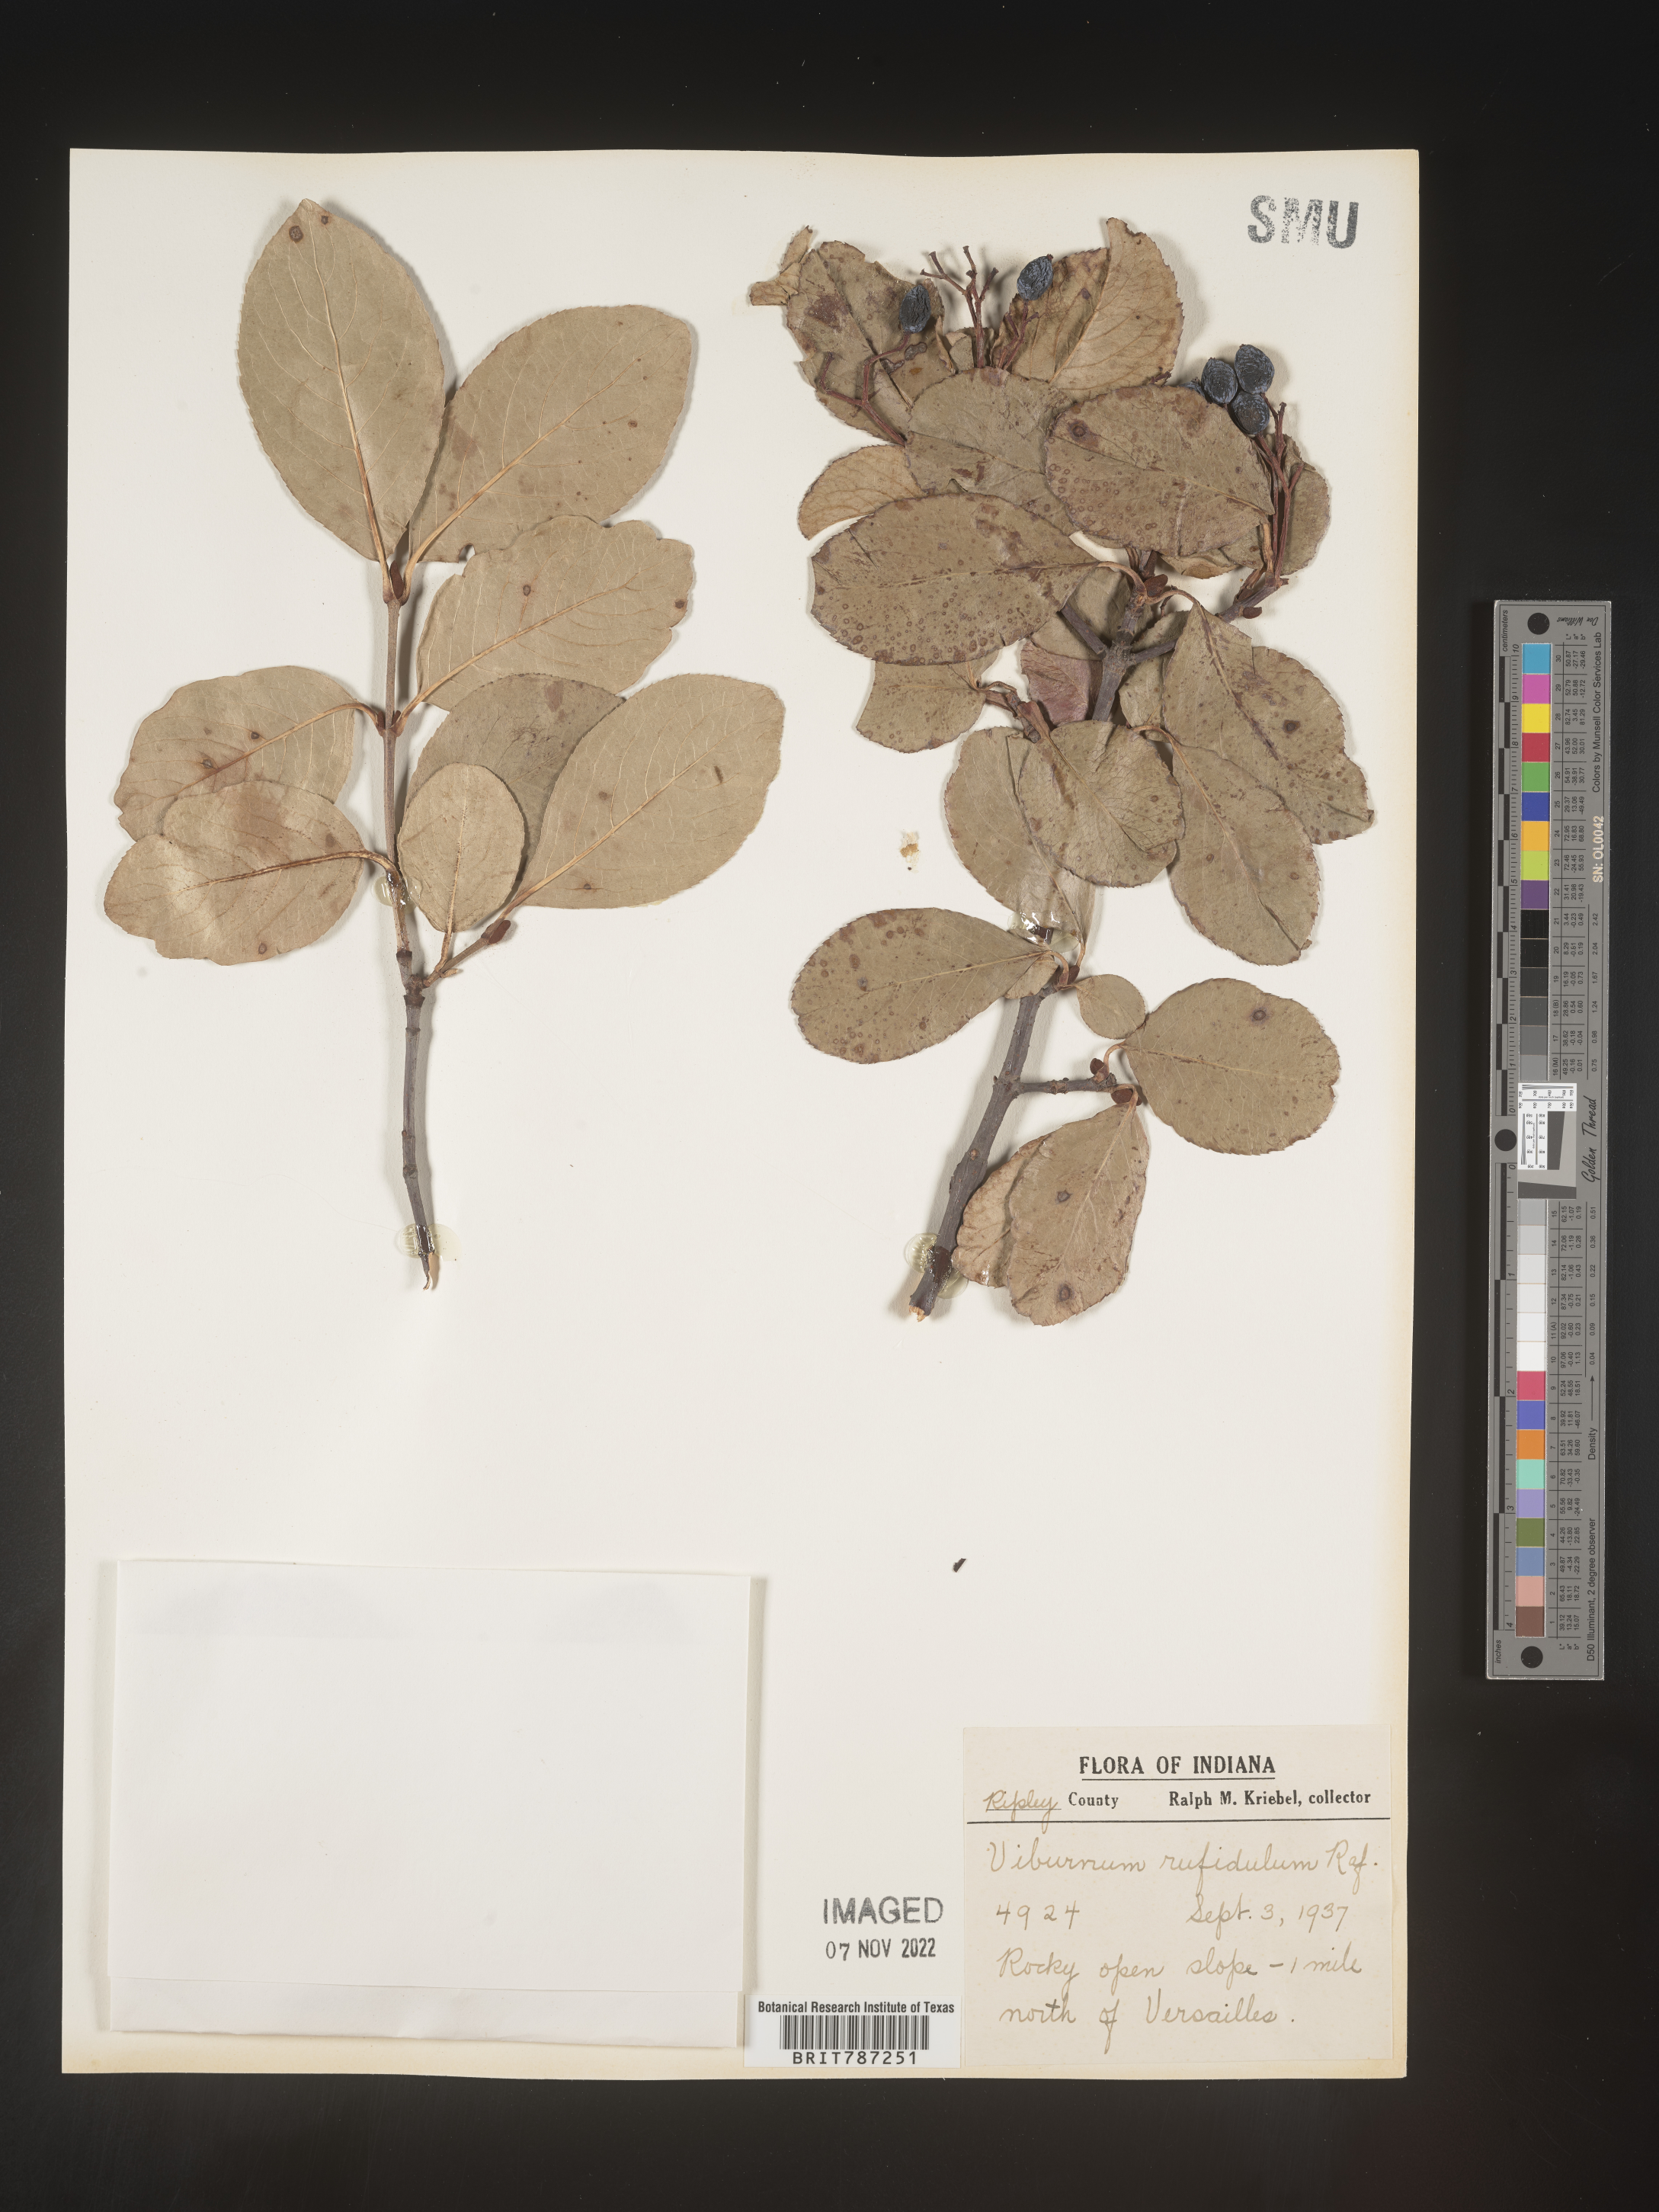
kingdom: Plantae
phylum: Tracheophyta
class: Magnoliopsida
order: Dipsacales
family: Viburnaceae
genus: Viburnum
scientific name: Viburnum rufidulum
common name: Blue haw
